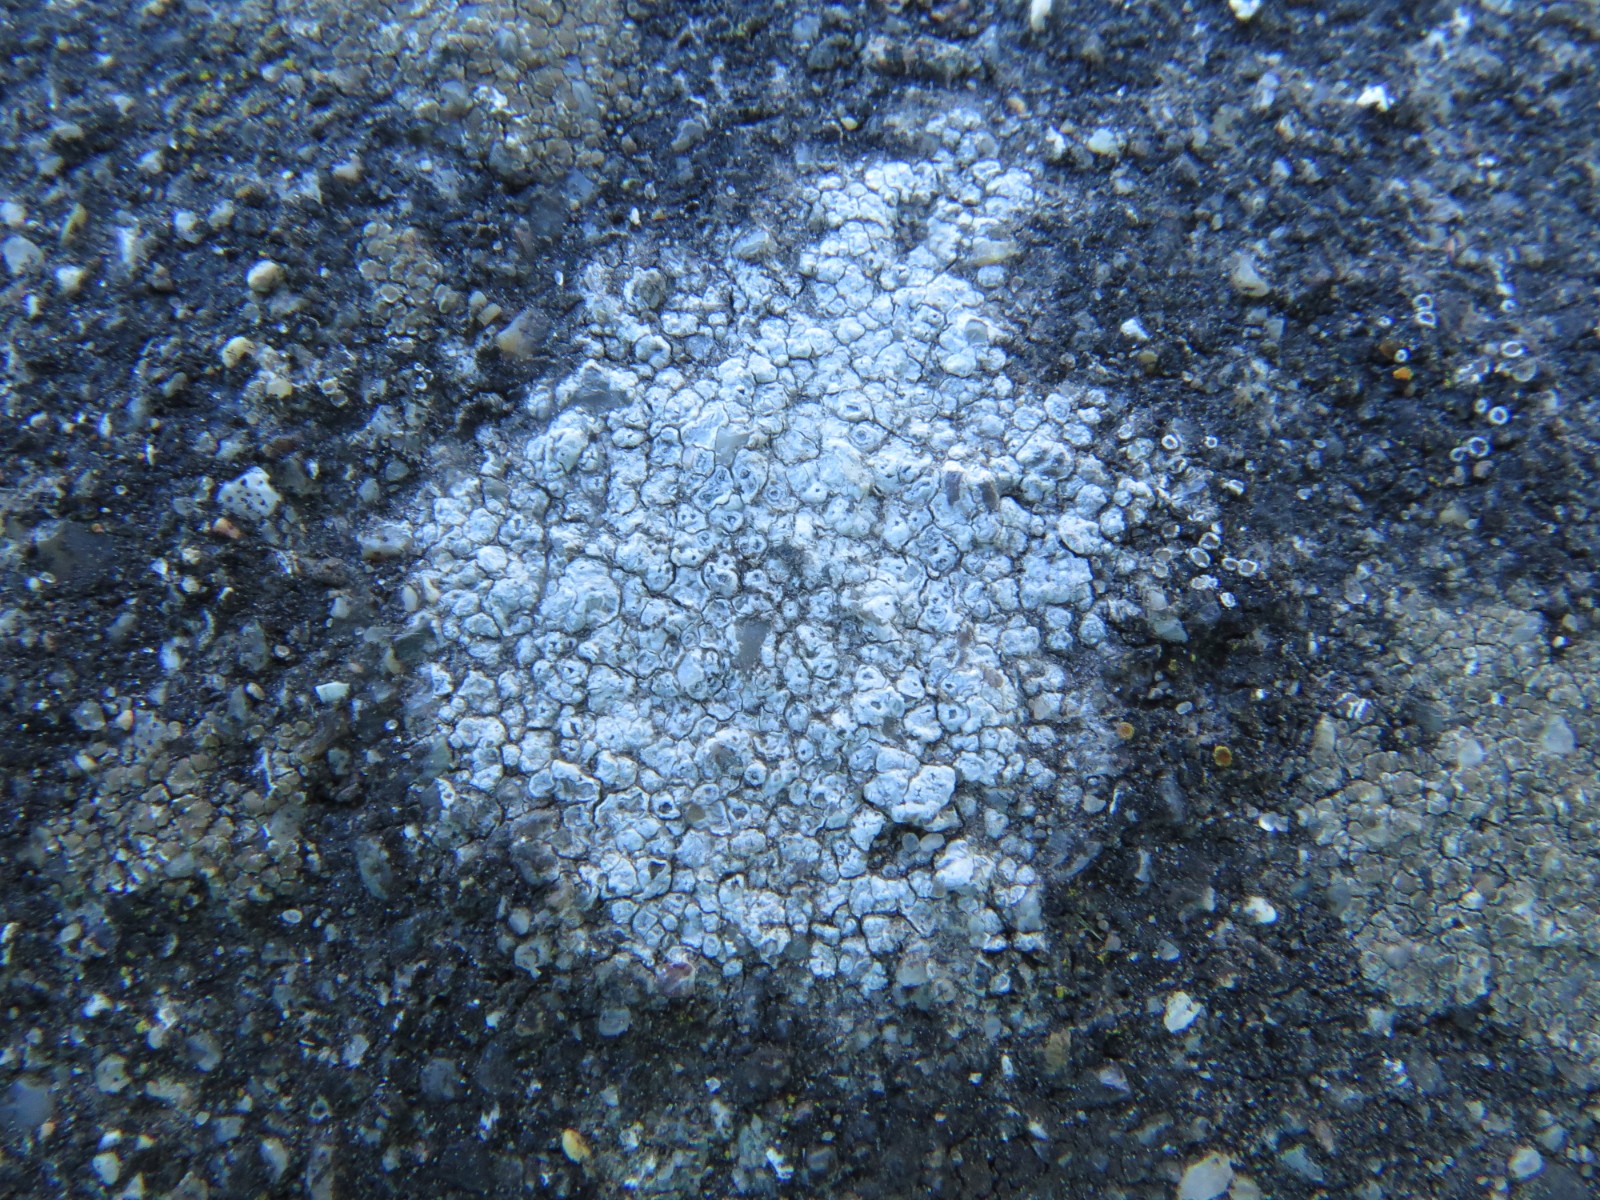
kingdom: Fungi
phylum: Ascomycota
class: Lecanoromycetes
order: Pertusariales
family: Megasporaceae
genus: Circinaria
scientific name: Circinaria contorta
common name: indviklet hulskivelav
